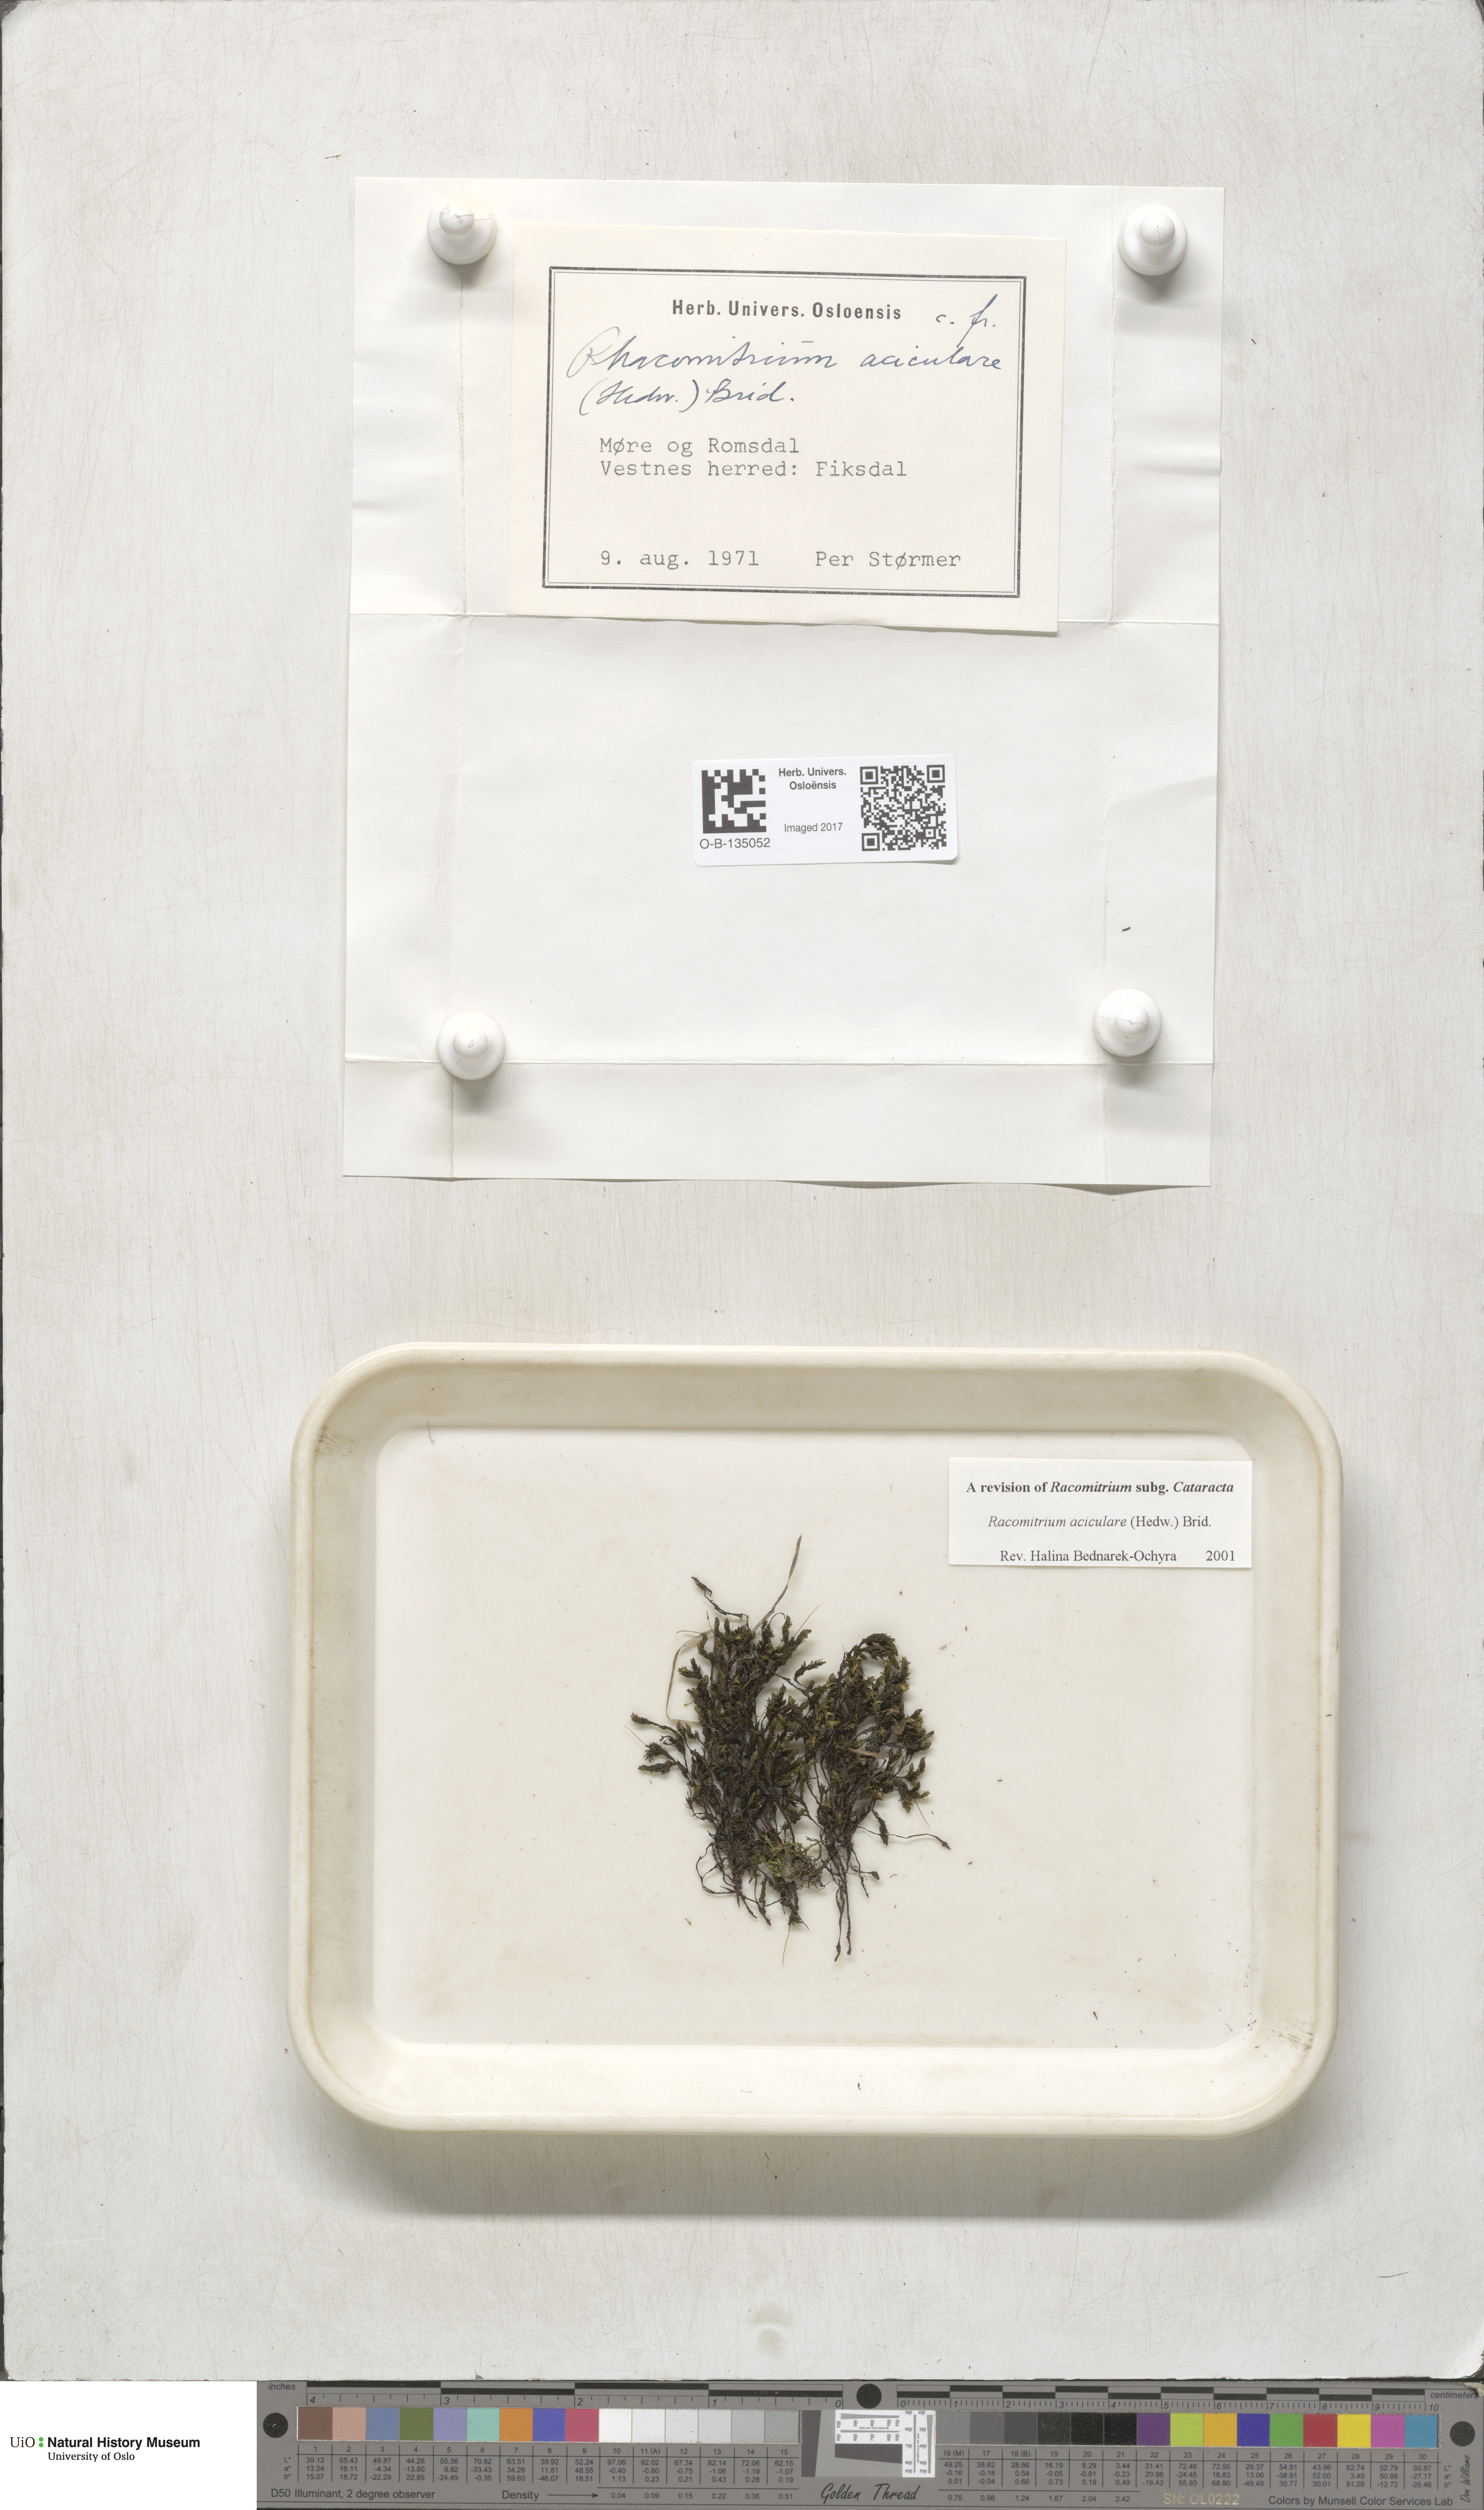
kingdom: Plantae
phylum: Bryophyta
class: Bryopsida
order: Grimmiales
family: Grimmiaceae
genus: Codriophorus
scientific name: Codriophorus acicularis
